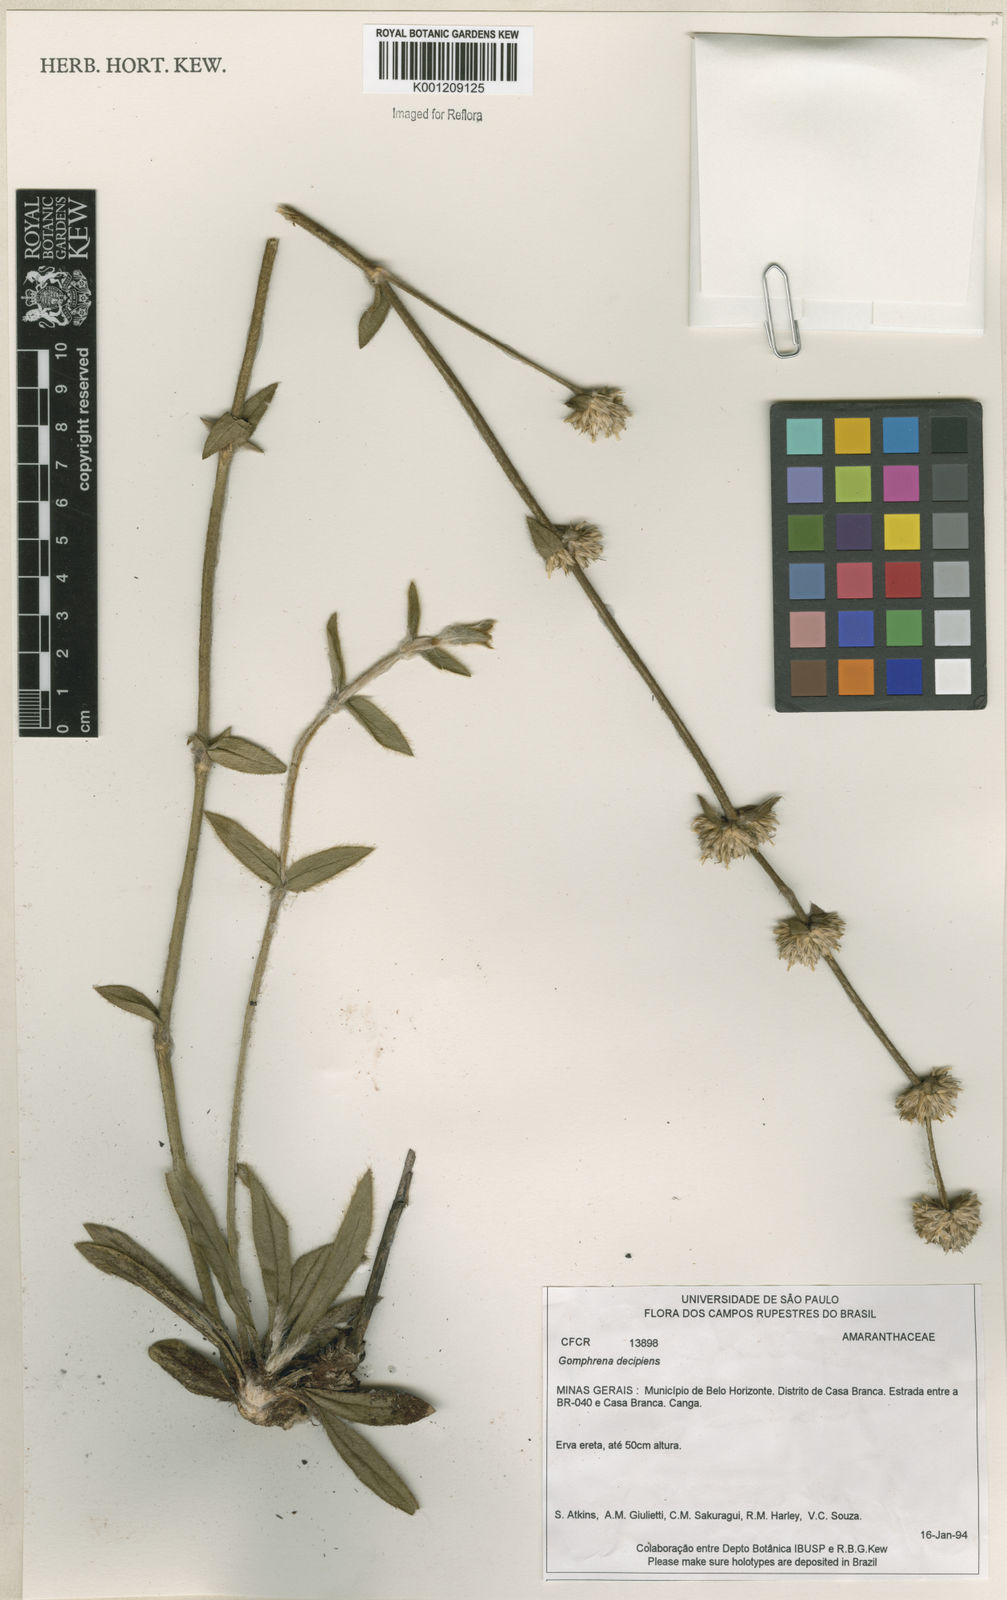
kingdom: Plantae
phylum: Tracheophyta
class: Magnoliopsida
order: Caryophyllales
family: Amaranthaceae
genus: Gomphrena
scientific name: Gomphrena decipiens
